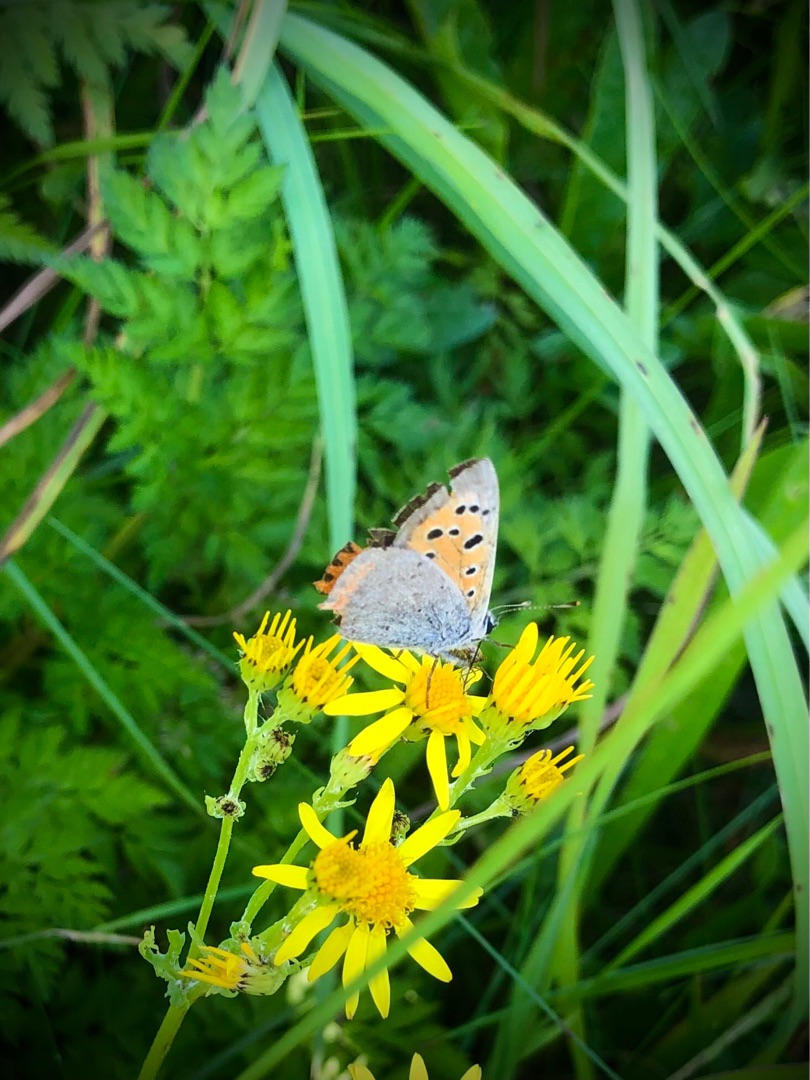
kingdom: Animalia
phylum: Arthropoda
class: Insecta
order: Lepidoptera
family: Lycaenidae
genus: Lycaena
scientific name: Lycaena phlaeas
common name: Lille ildfugl
